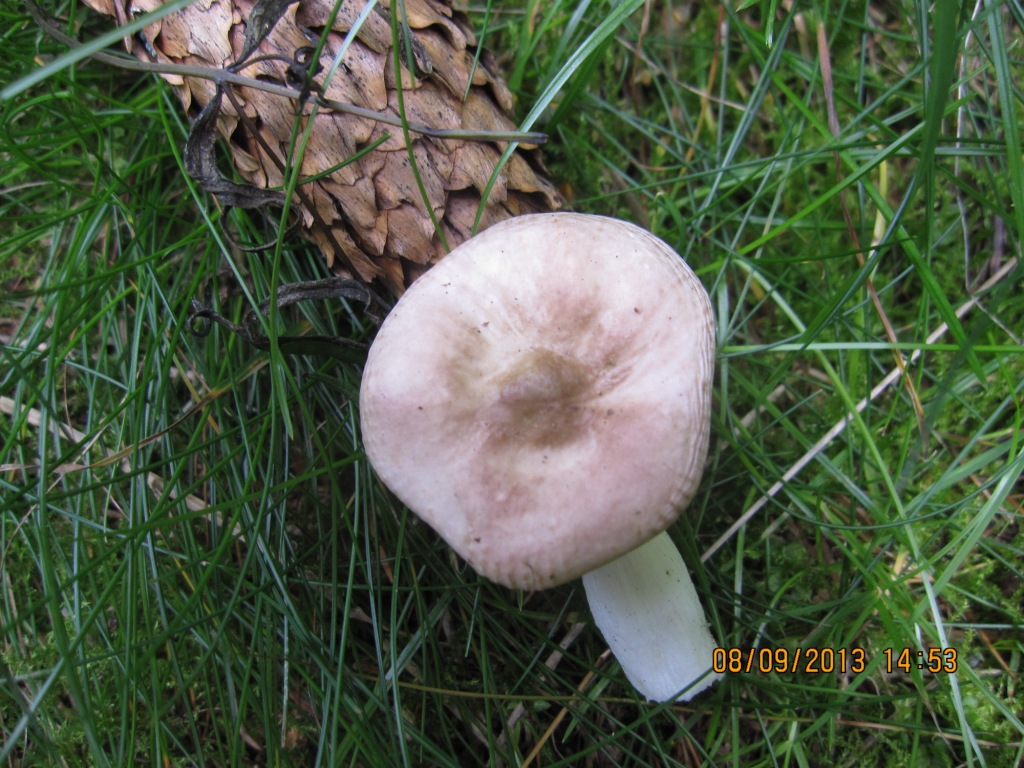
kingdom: Fungi
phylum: Basidiomycota
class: Agaricomycetes
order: Russulales
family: Russulaceae
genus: Russula
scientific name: Russula nauseosa
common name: spinkel skørhat
